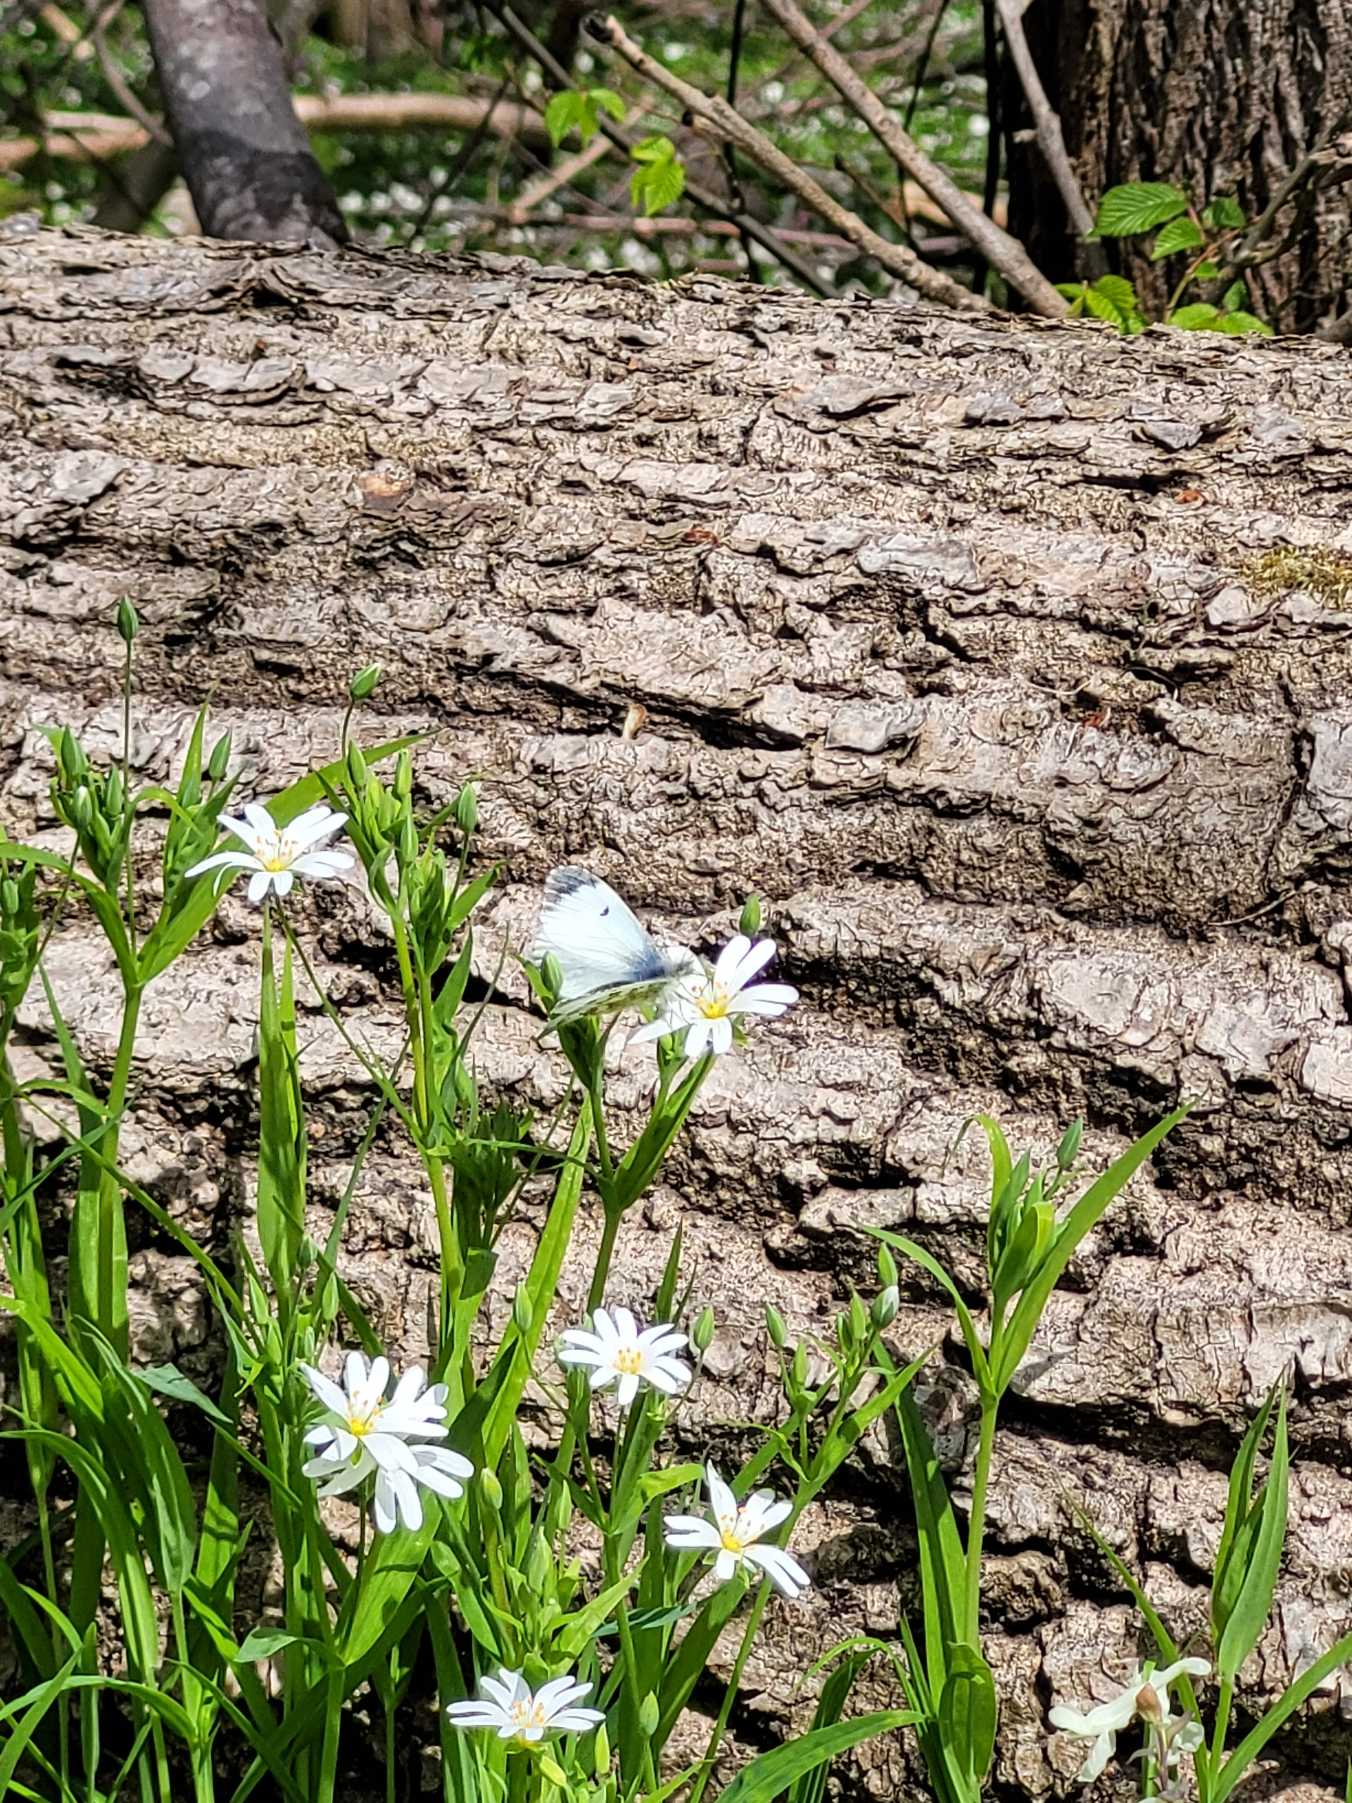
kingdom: Animalia
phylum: Arthropoda
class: Insecta
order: Lepidoptera
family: Pieridae
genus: Anthocharis
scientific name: Anthocharis cardamines
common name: Aurora
